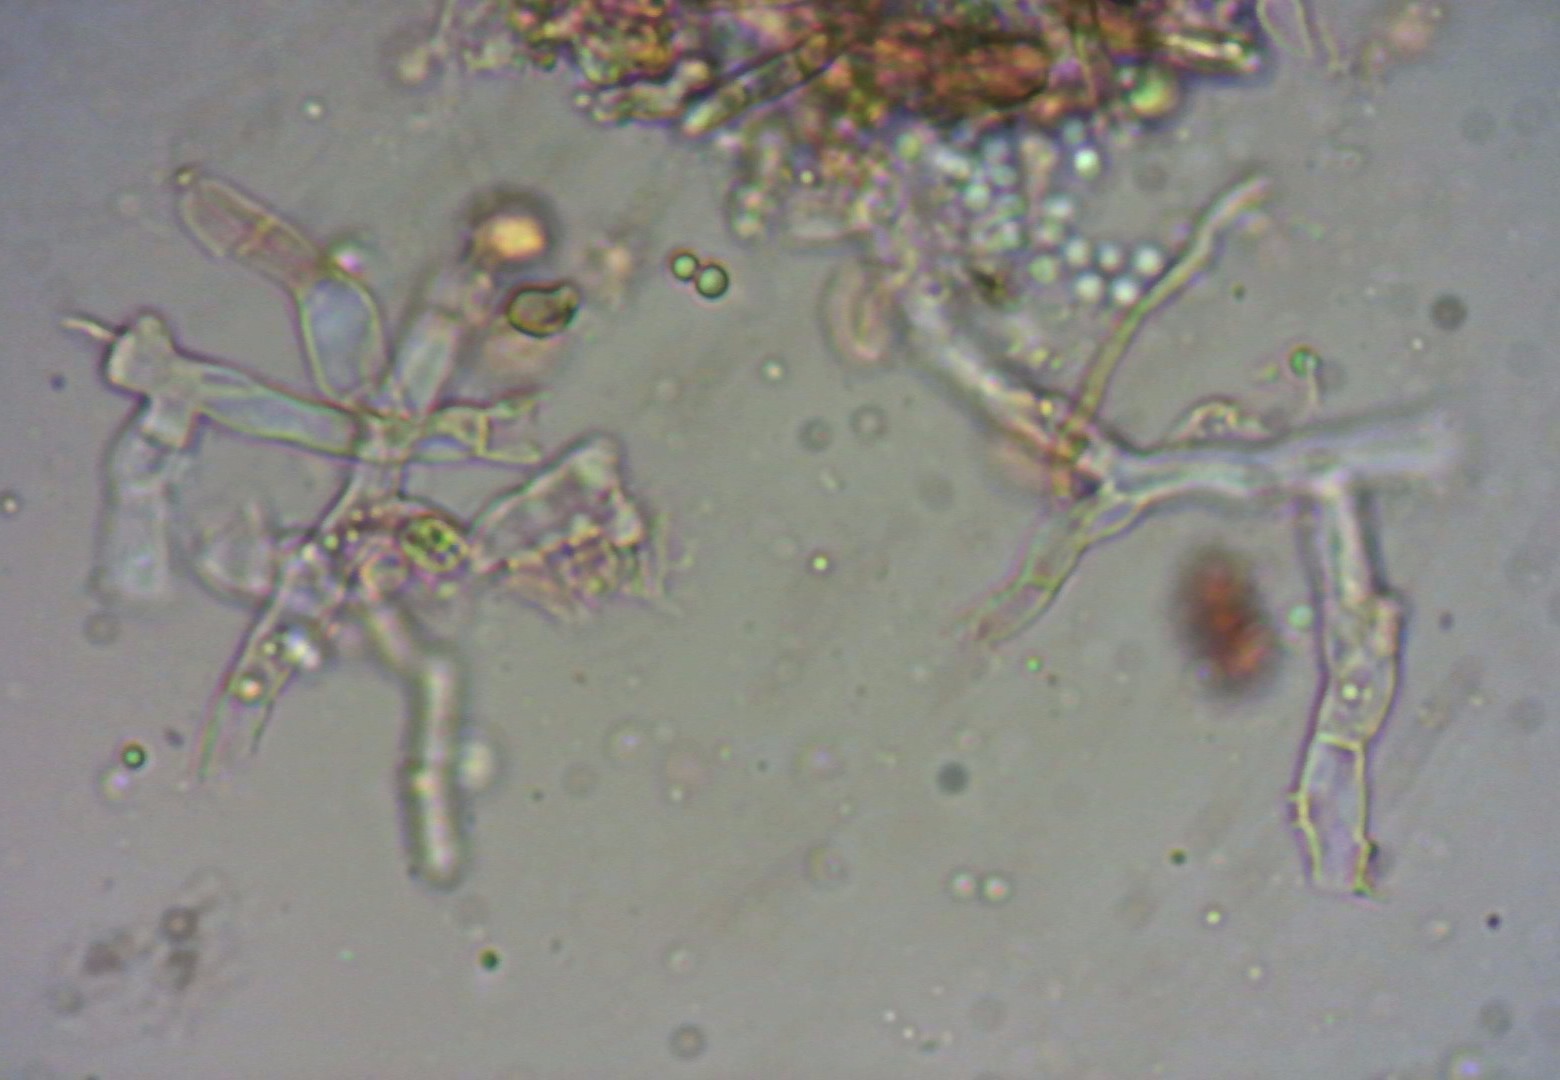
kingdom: Fungi
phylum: Basidiomycota
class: Agaricomycetes
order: Cantharellales
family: Tulasnellaceae
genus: Tulasnella
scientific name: Tulasnella violea
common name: violet ballonhinde
